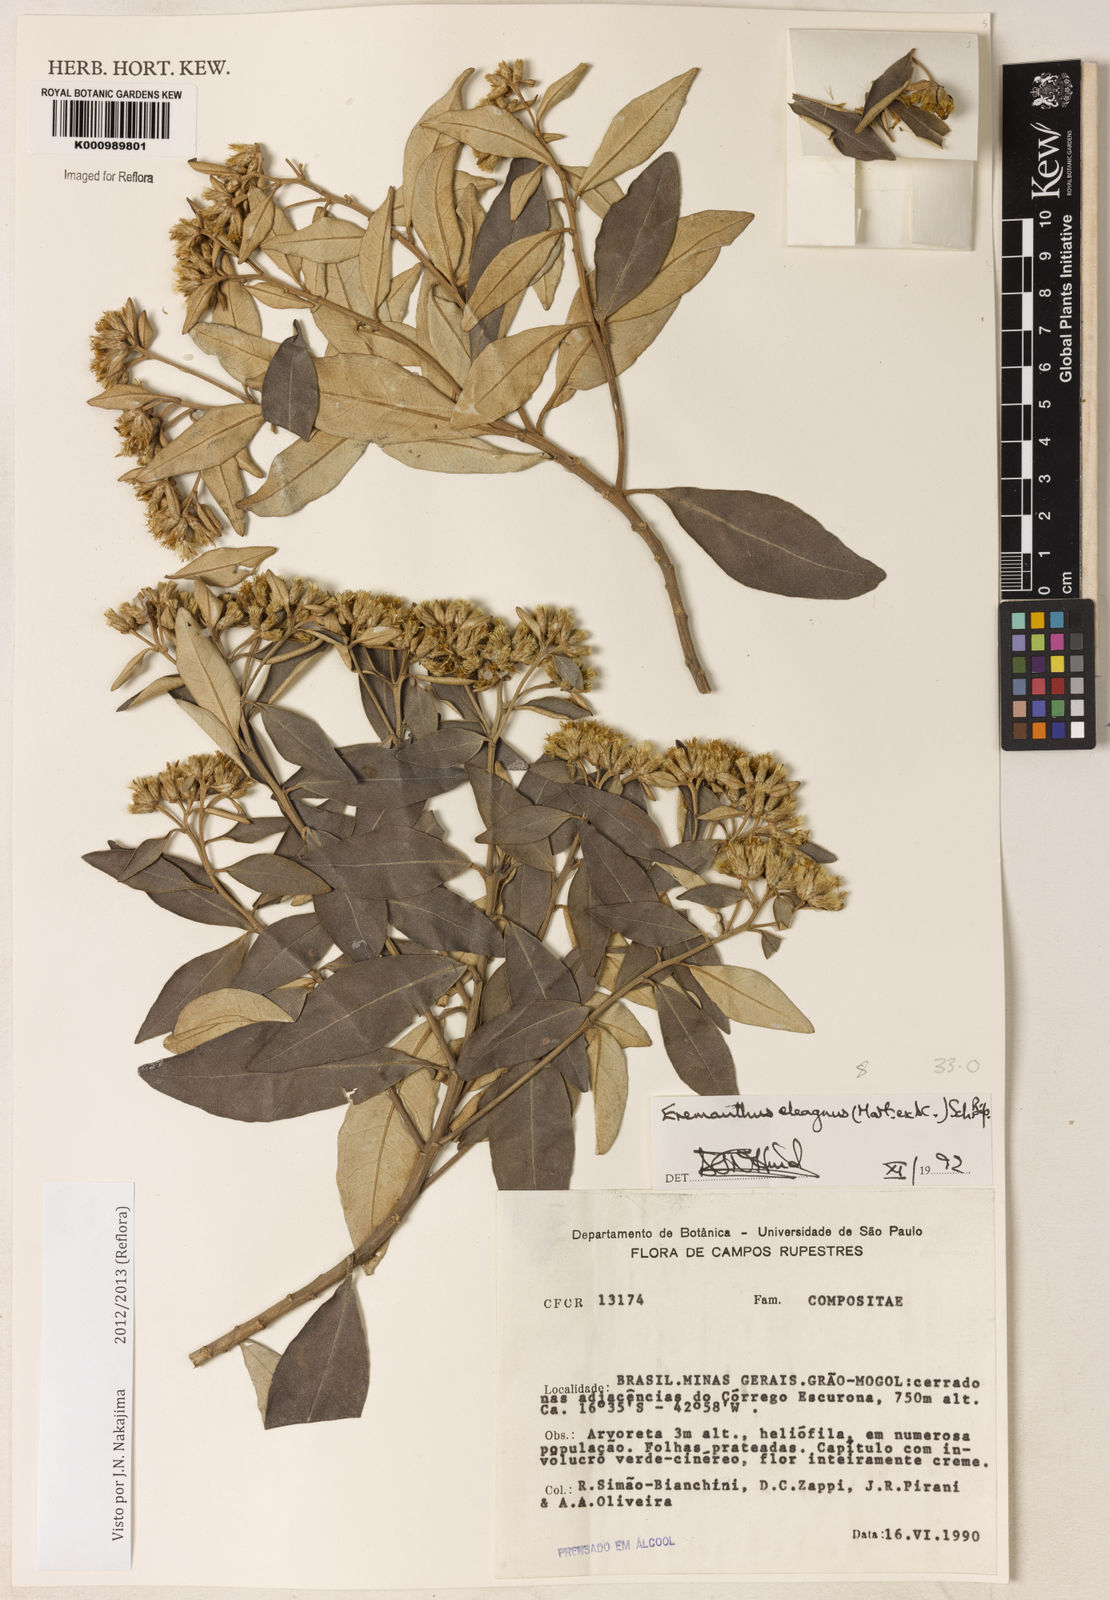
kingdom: Plantae
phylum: Tracheophyta
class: Magnoliopsida
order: Asterales
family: Asteraceae
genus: Eremanthus
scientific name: Eremanthus elaeagnus
